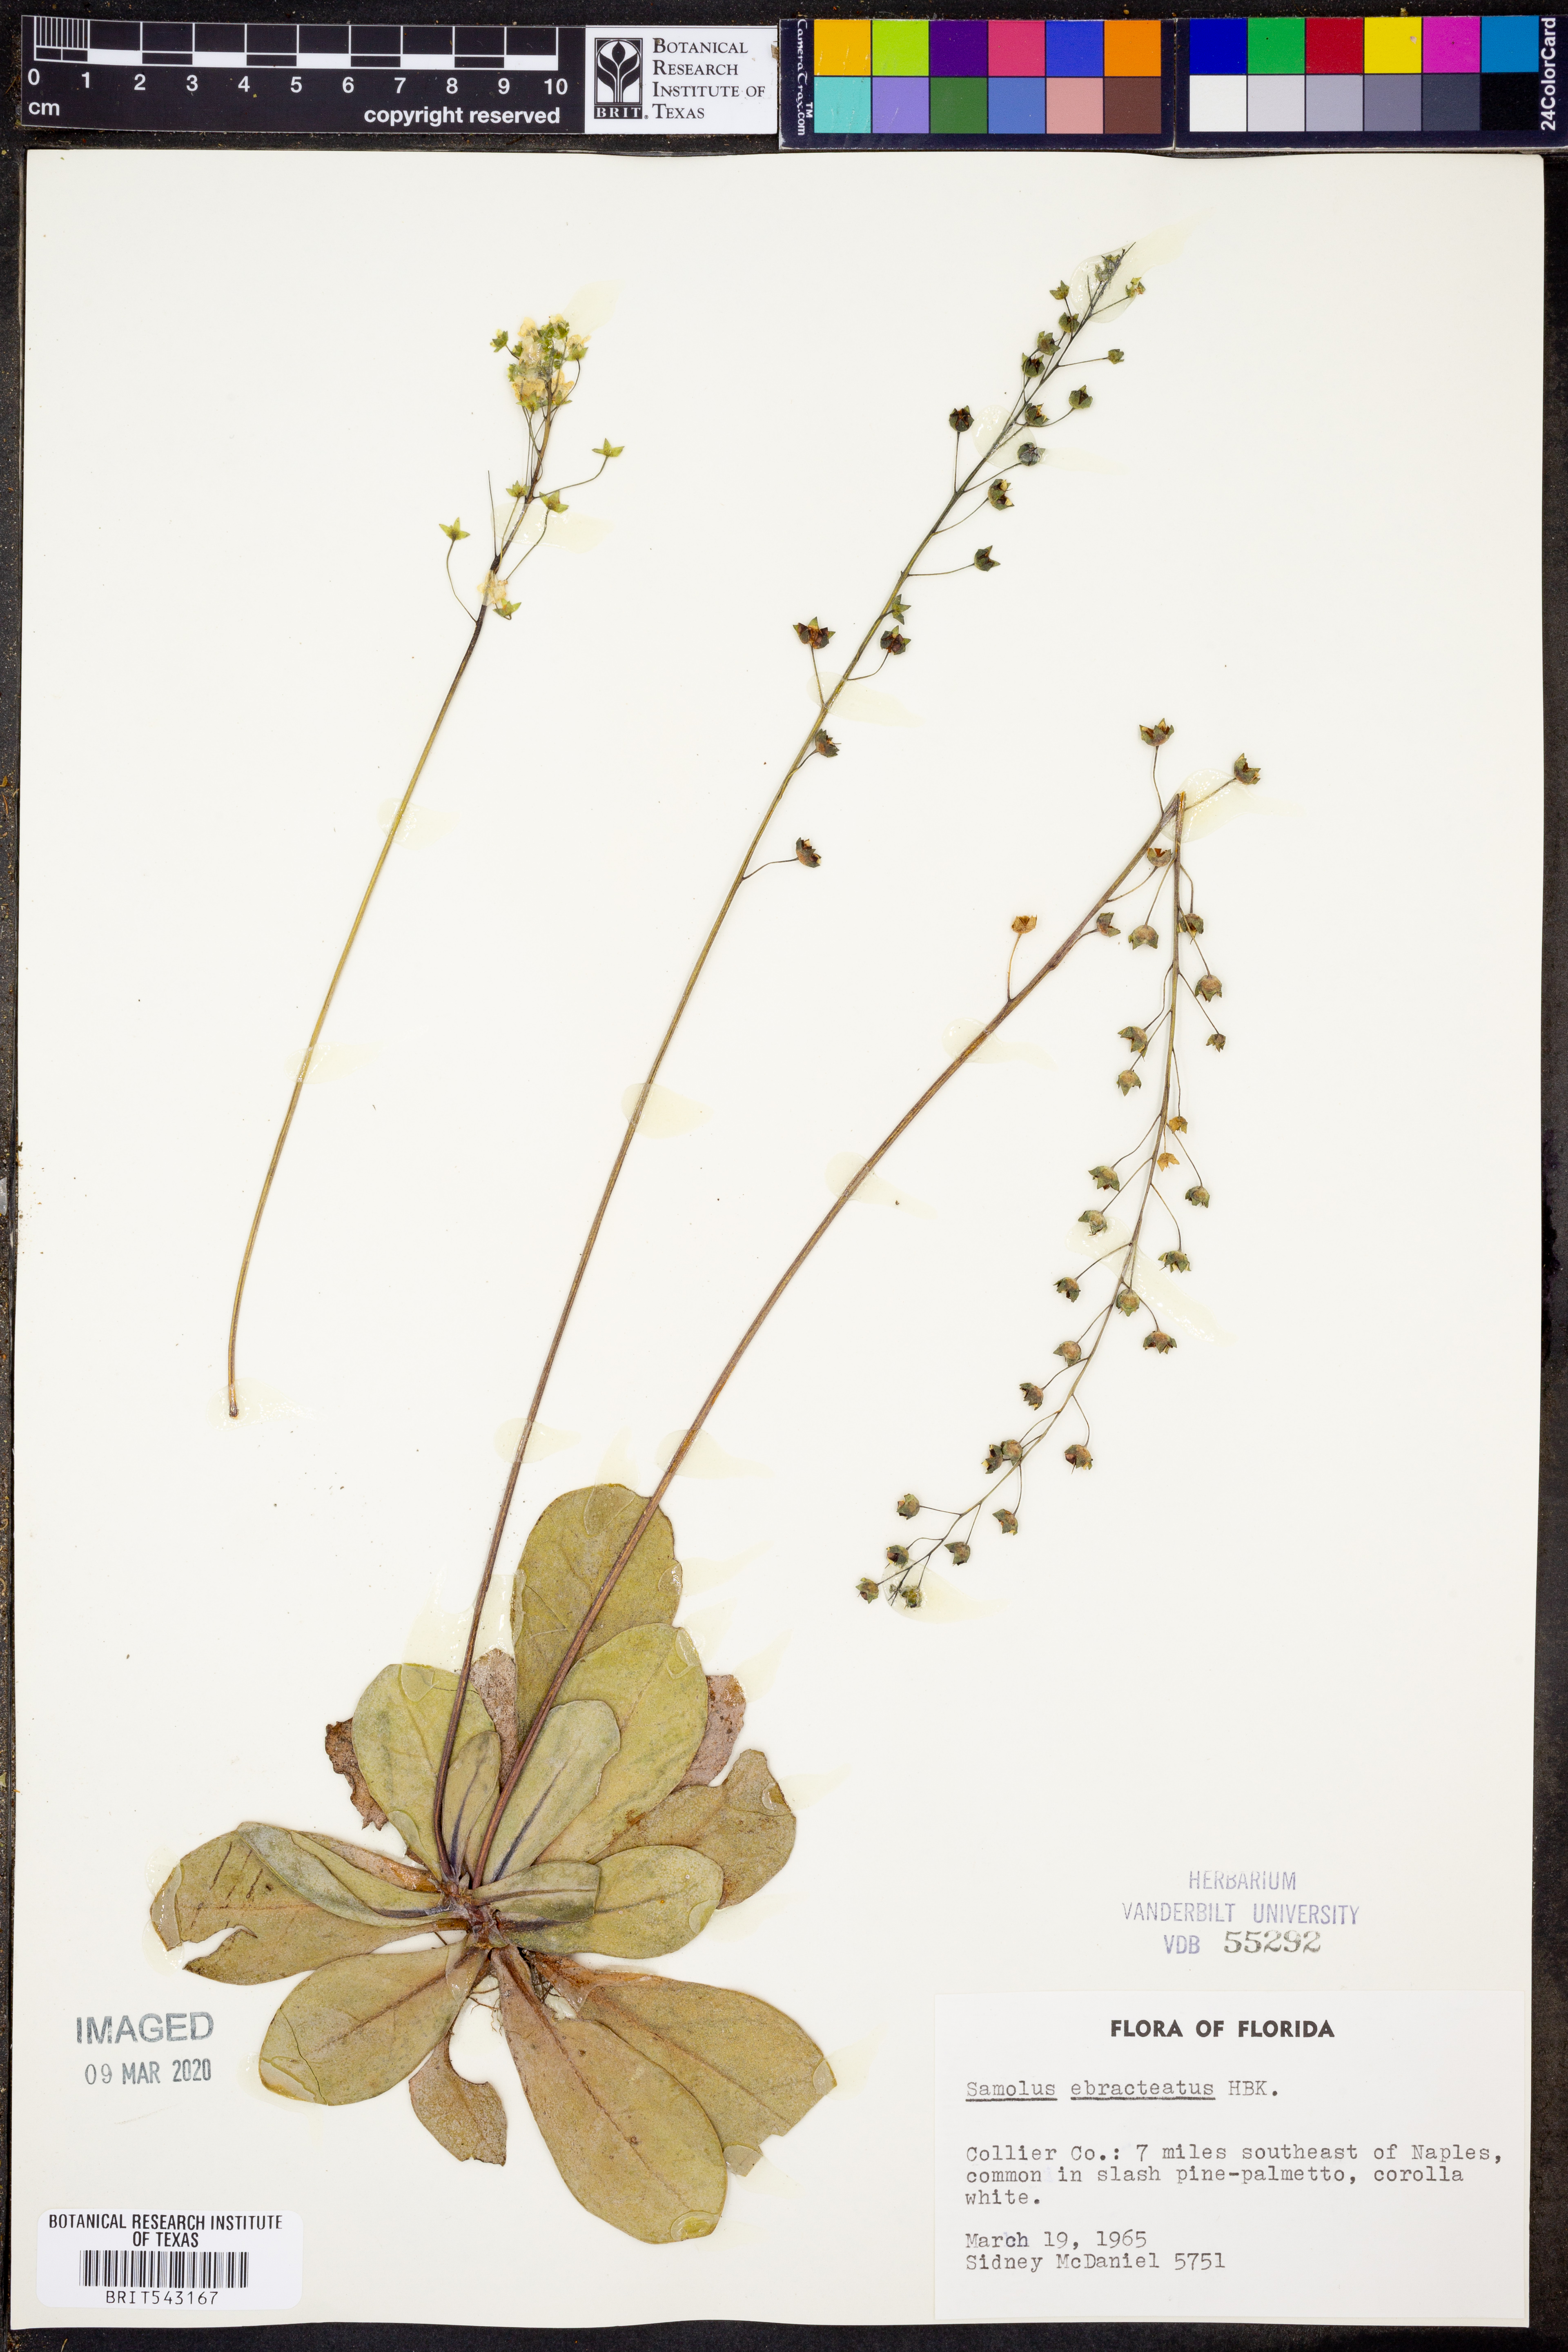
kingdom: Plantae
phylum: Tracheophyta
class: Magnoliopsida
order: Ericales
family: Primulaceae
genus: Samolus
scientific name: Samolus ebracteatus
